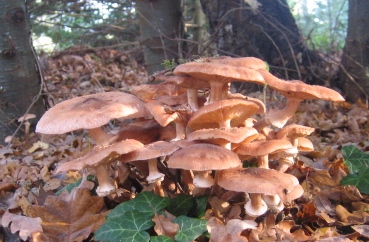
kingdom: Fungi
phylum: Basidiomycota
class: Agaricomycetes
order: Agaricales
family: Physalacriaceae
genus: Armillaria
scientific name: Armillaria mellea
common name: ægte honningsvamp
